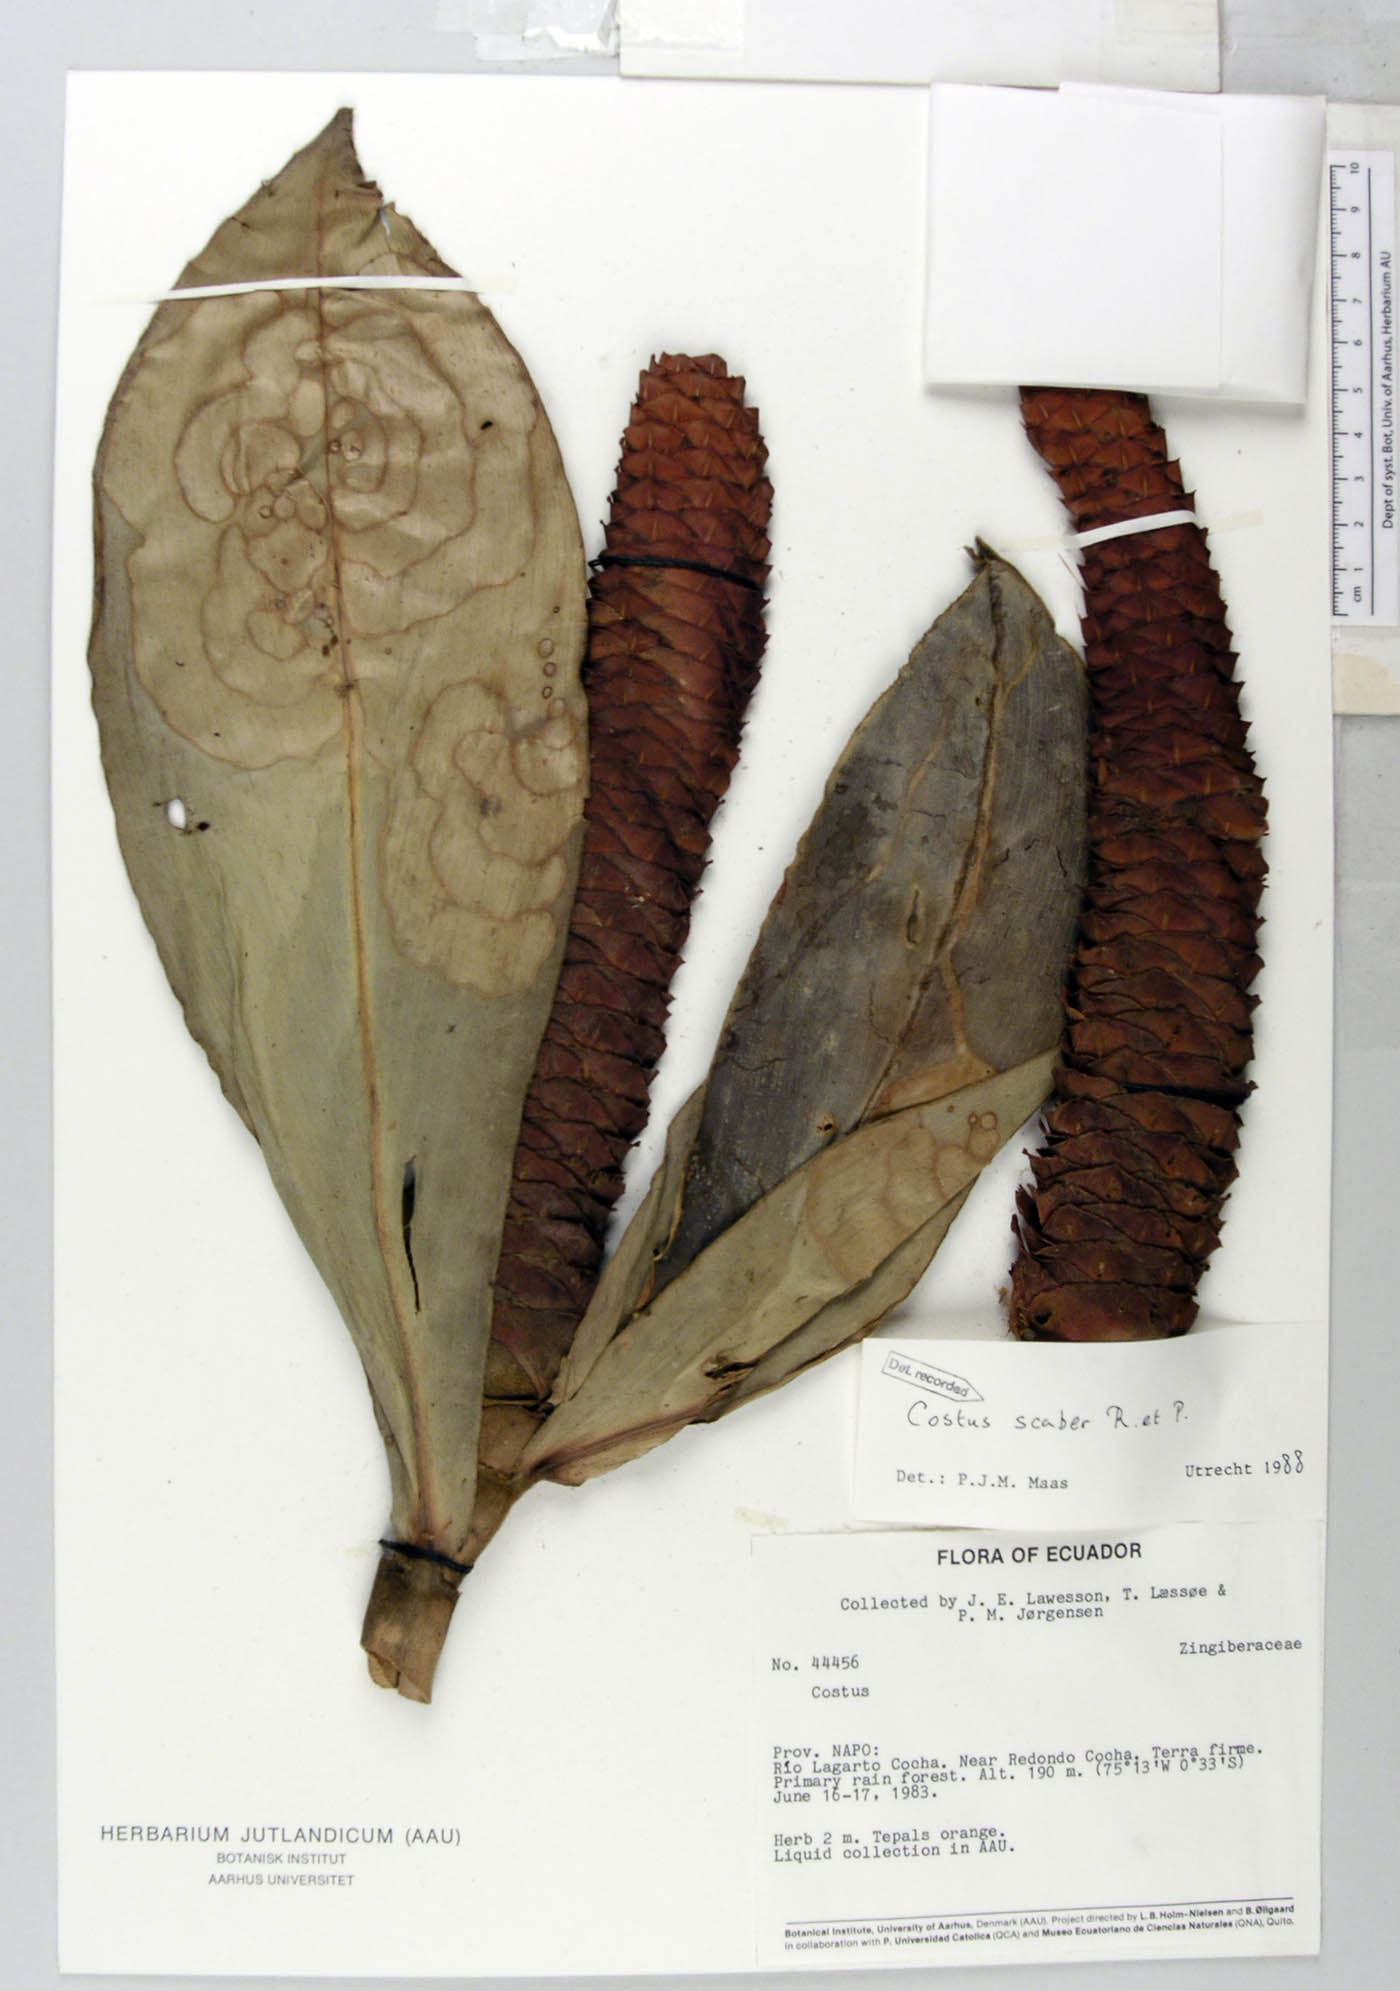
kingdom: Plantae
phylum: Tracheophyta
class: Liliopsida
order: Zingiberales
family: Costaceae
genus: Costus
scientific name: Costus scaber
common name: Spiral head ginger
